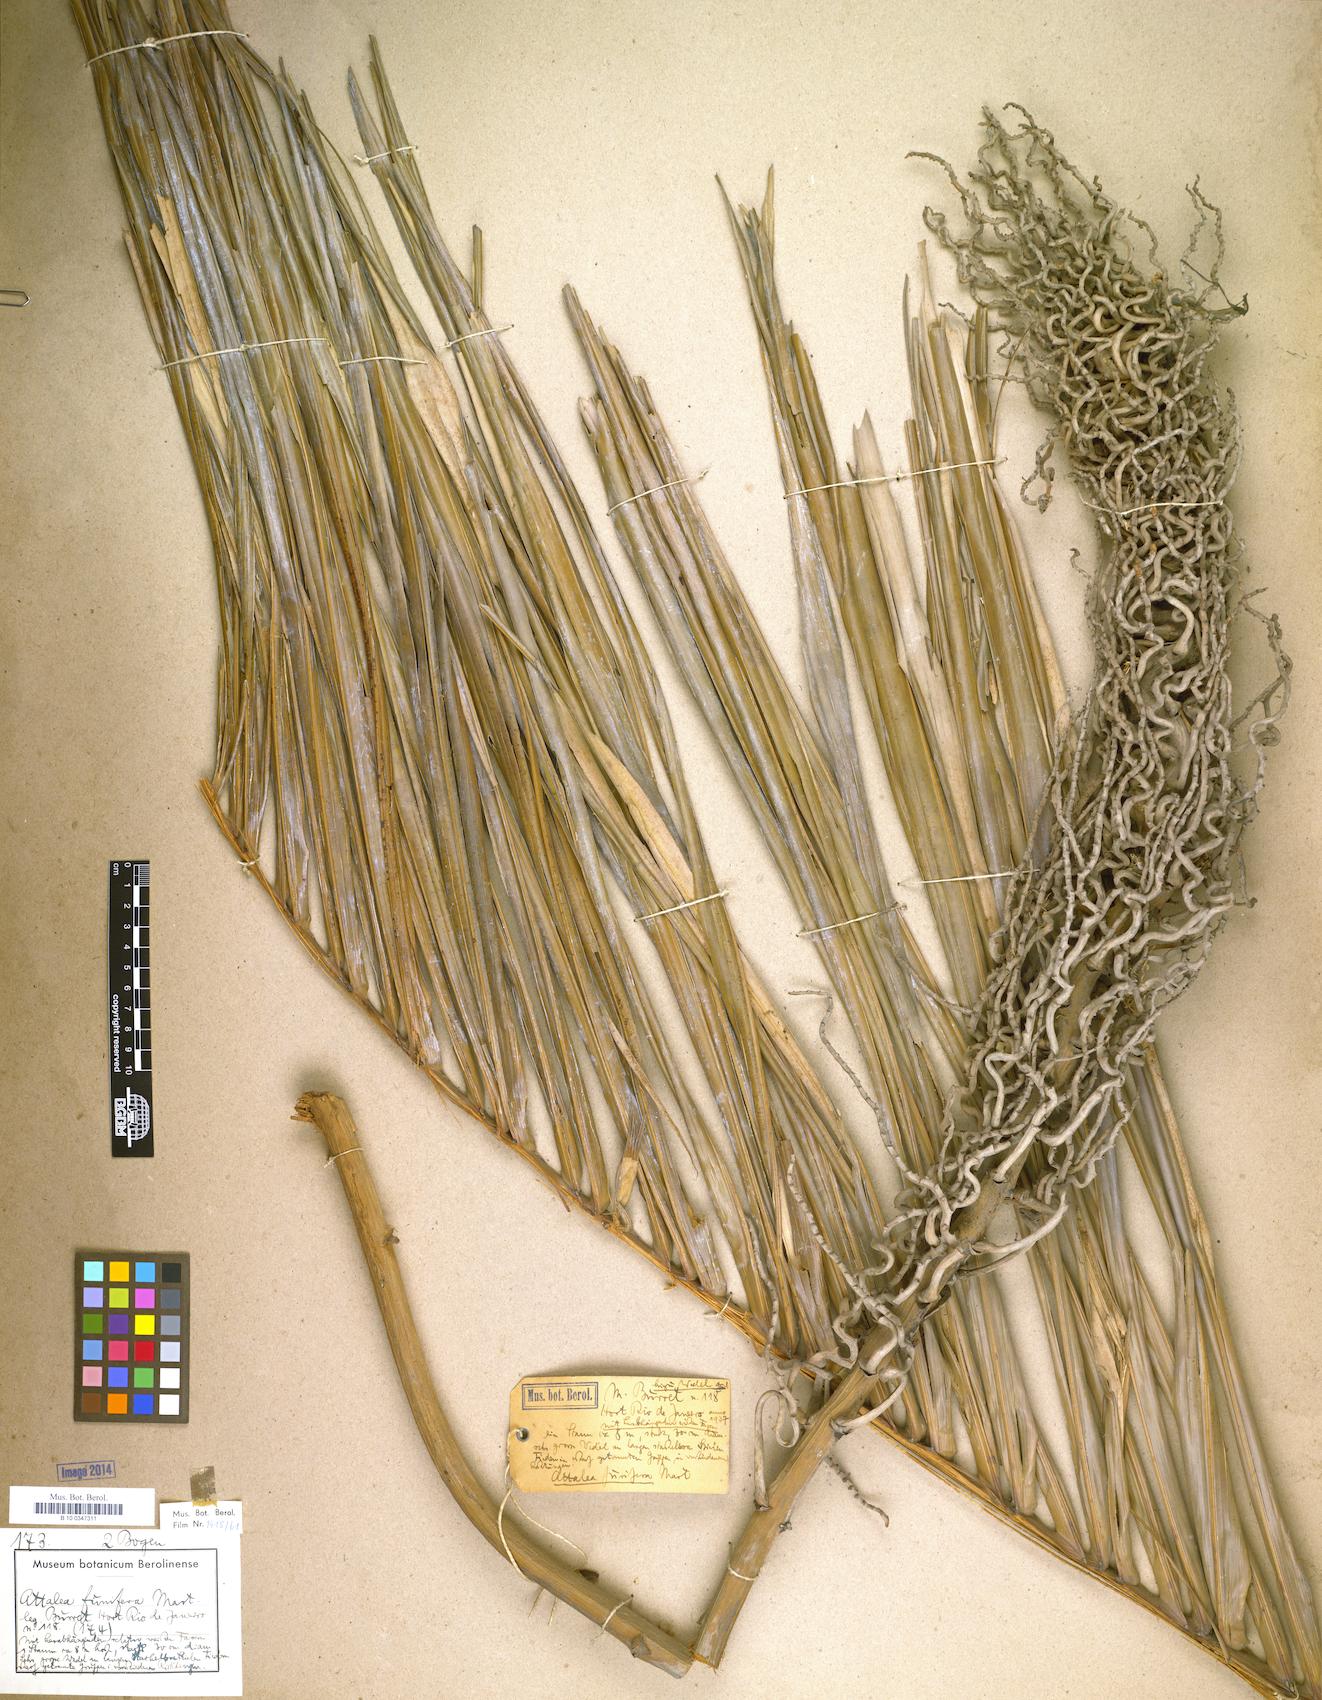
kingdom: Plantae
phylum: Tracheophyta
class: Liliopsida
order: Arecales
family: Arecaceae
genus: Attalea
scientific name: Attalea funifera
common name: Piassava palm
